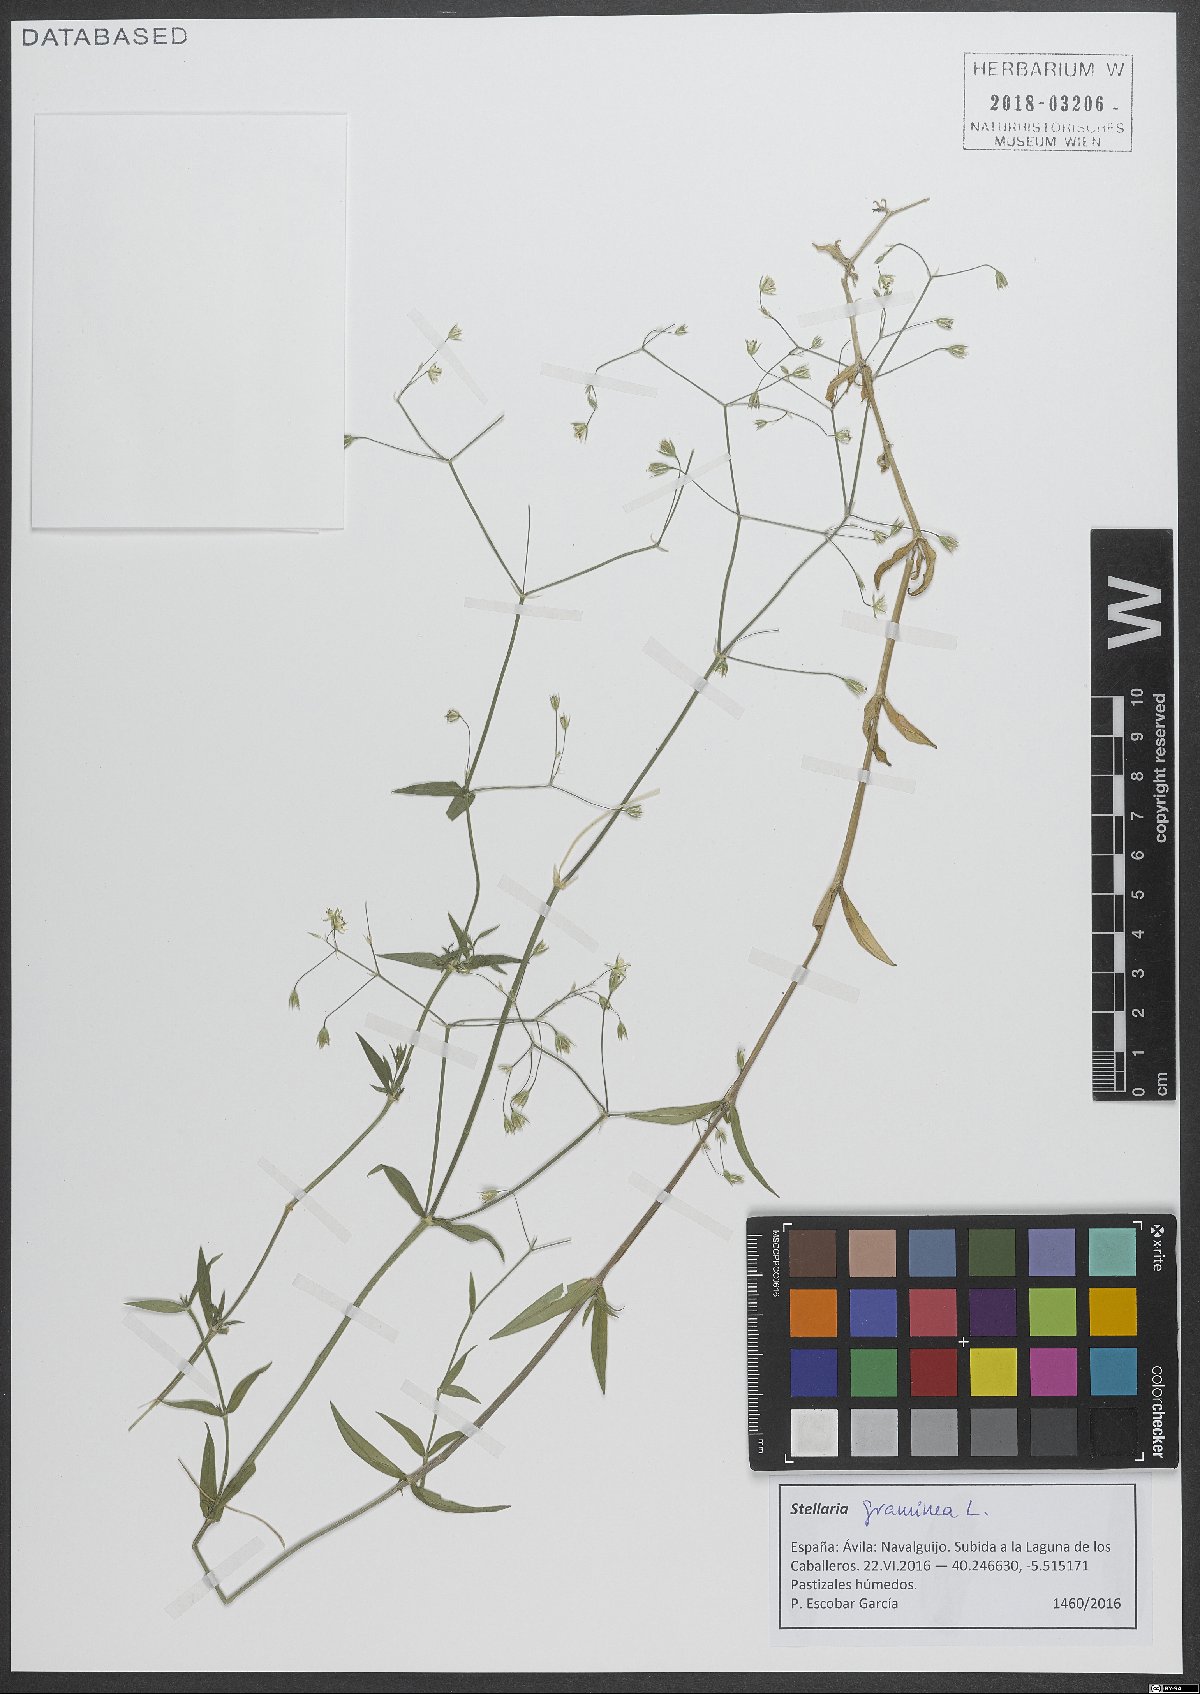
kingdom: Plantae
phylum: Tracheophyta
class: Magnoliopsida
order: Caryophyllales
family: Caryophyllaceae
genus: Stellaria
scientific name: Stellaria graminea
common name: Grass-like starwort
